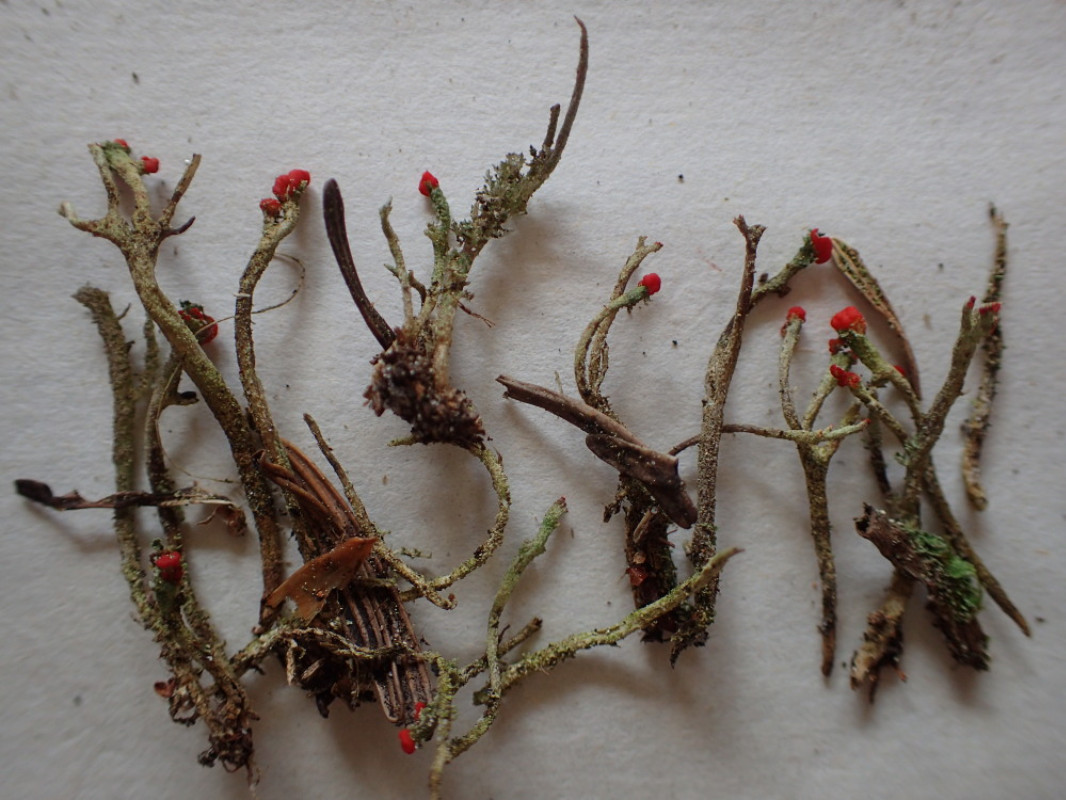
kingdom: Fungi
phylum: Ascomycota
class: Lecanoromycetes
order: Lecanorales
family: Cladoniaceae
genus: Cladonia
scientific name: Cladonia floerkeana
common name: lakrød bægerlav
